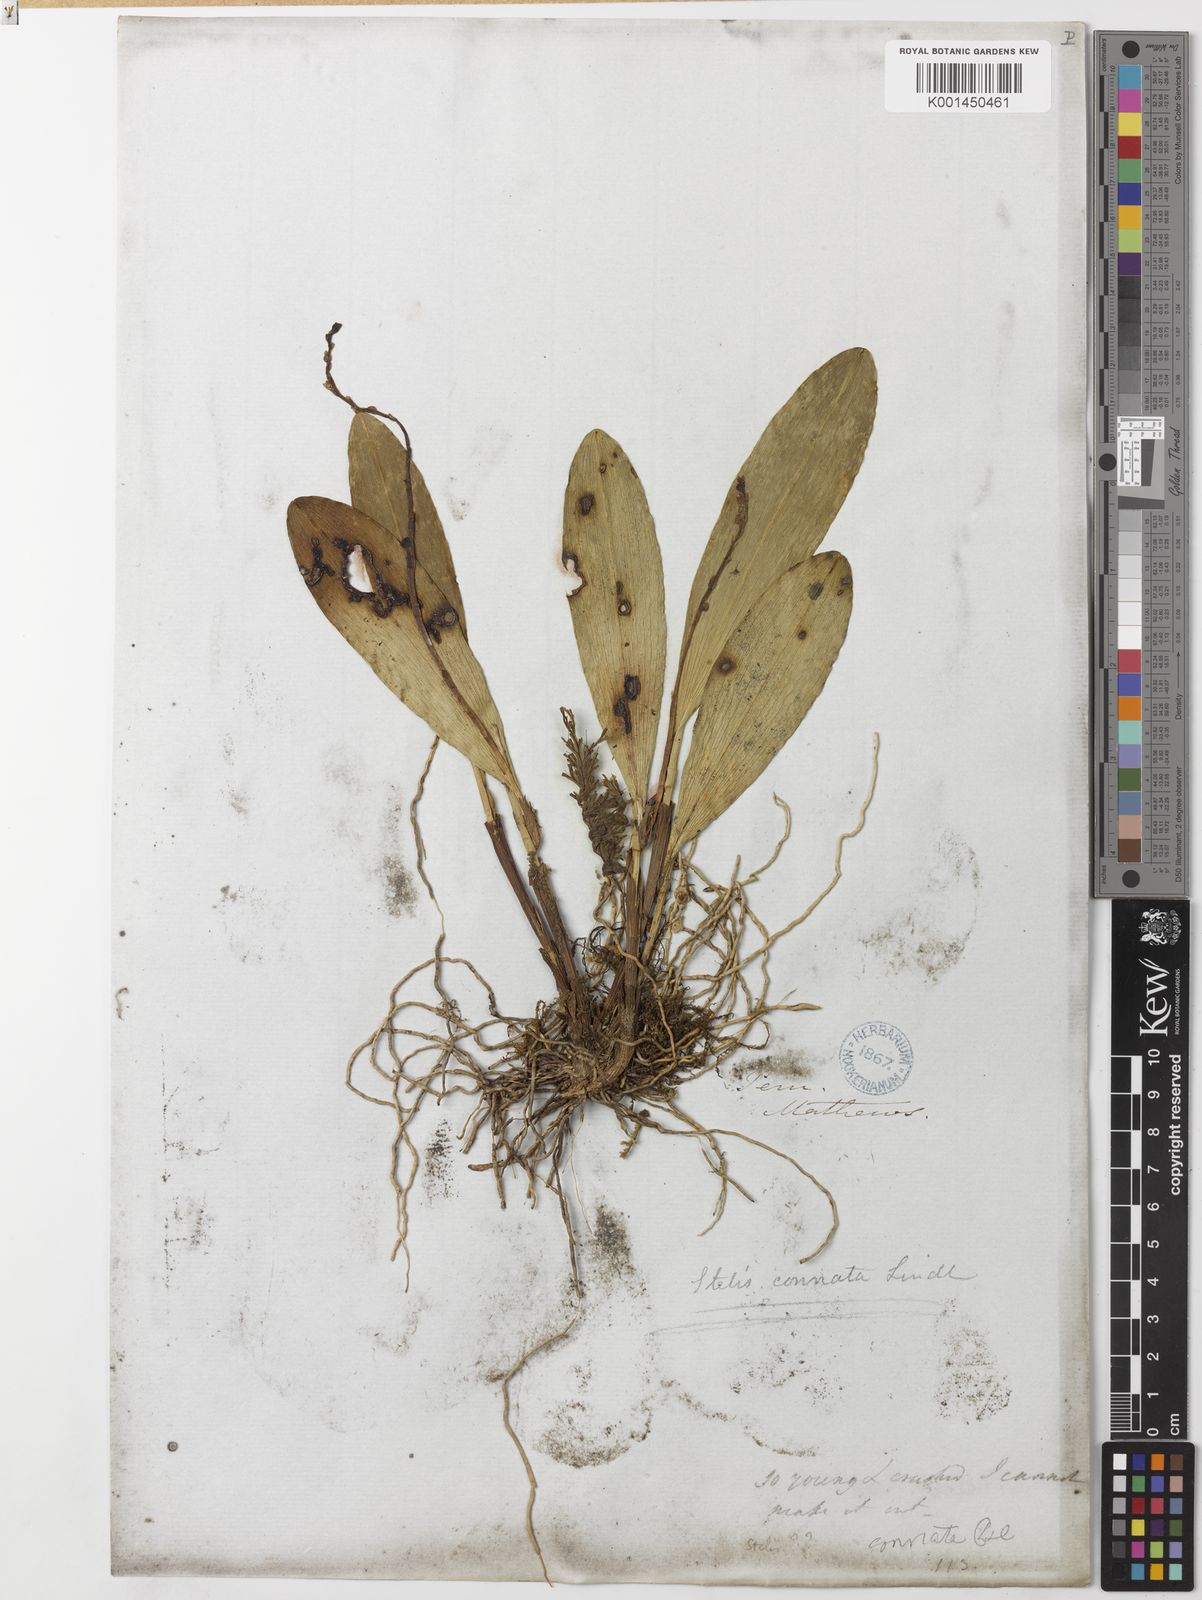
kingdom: Plantae
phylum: Tracheophyta
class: Liliopsida
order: Asparagales
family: Orchidaceae
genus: Stelis
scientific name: Stelis purpurea
